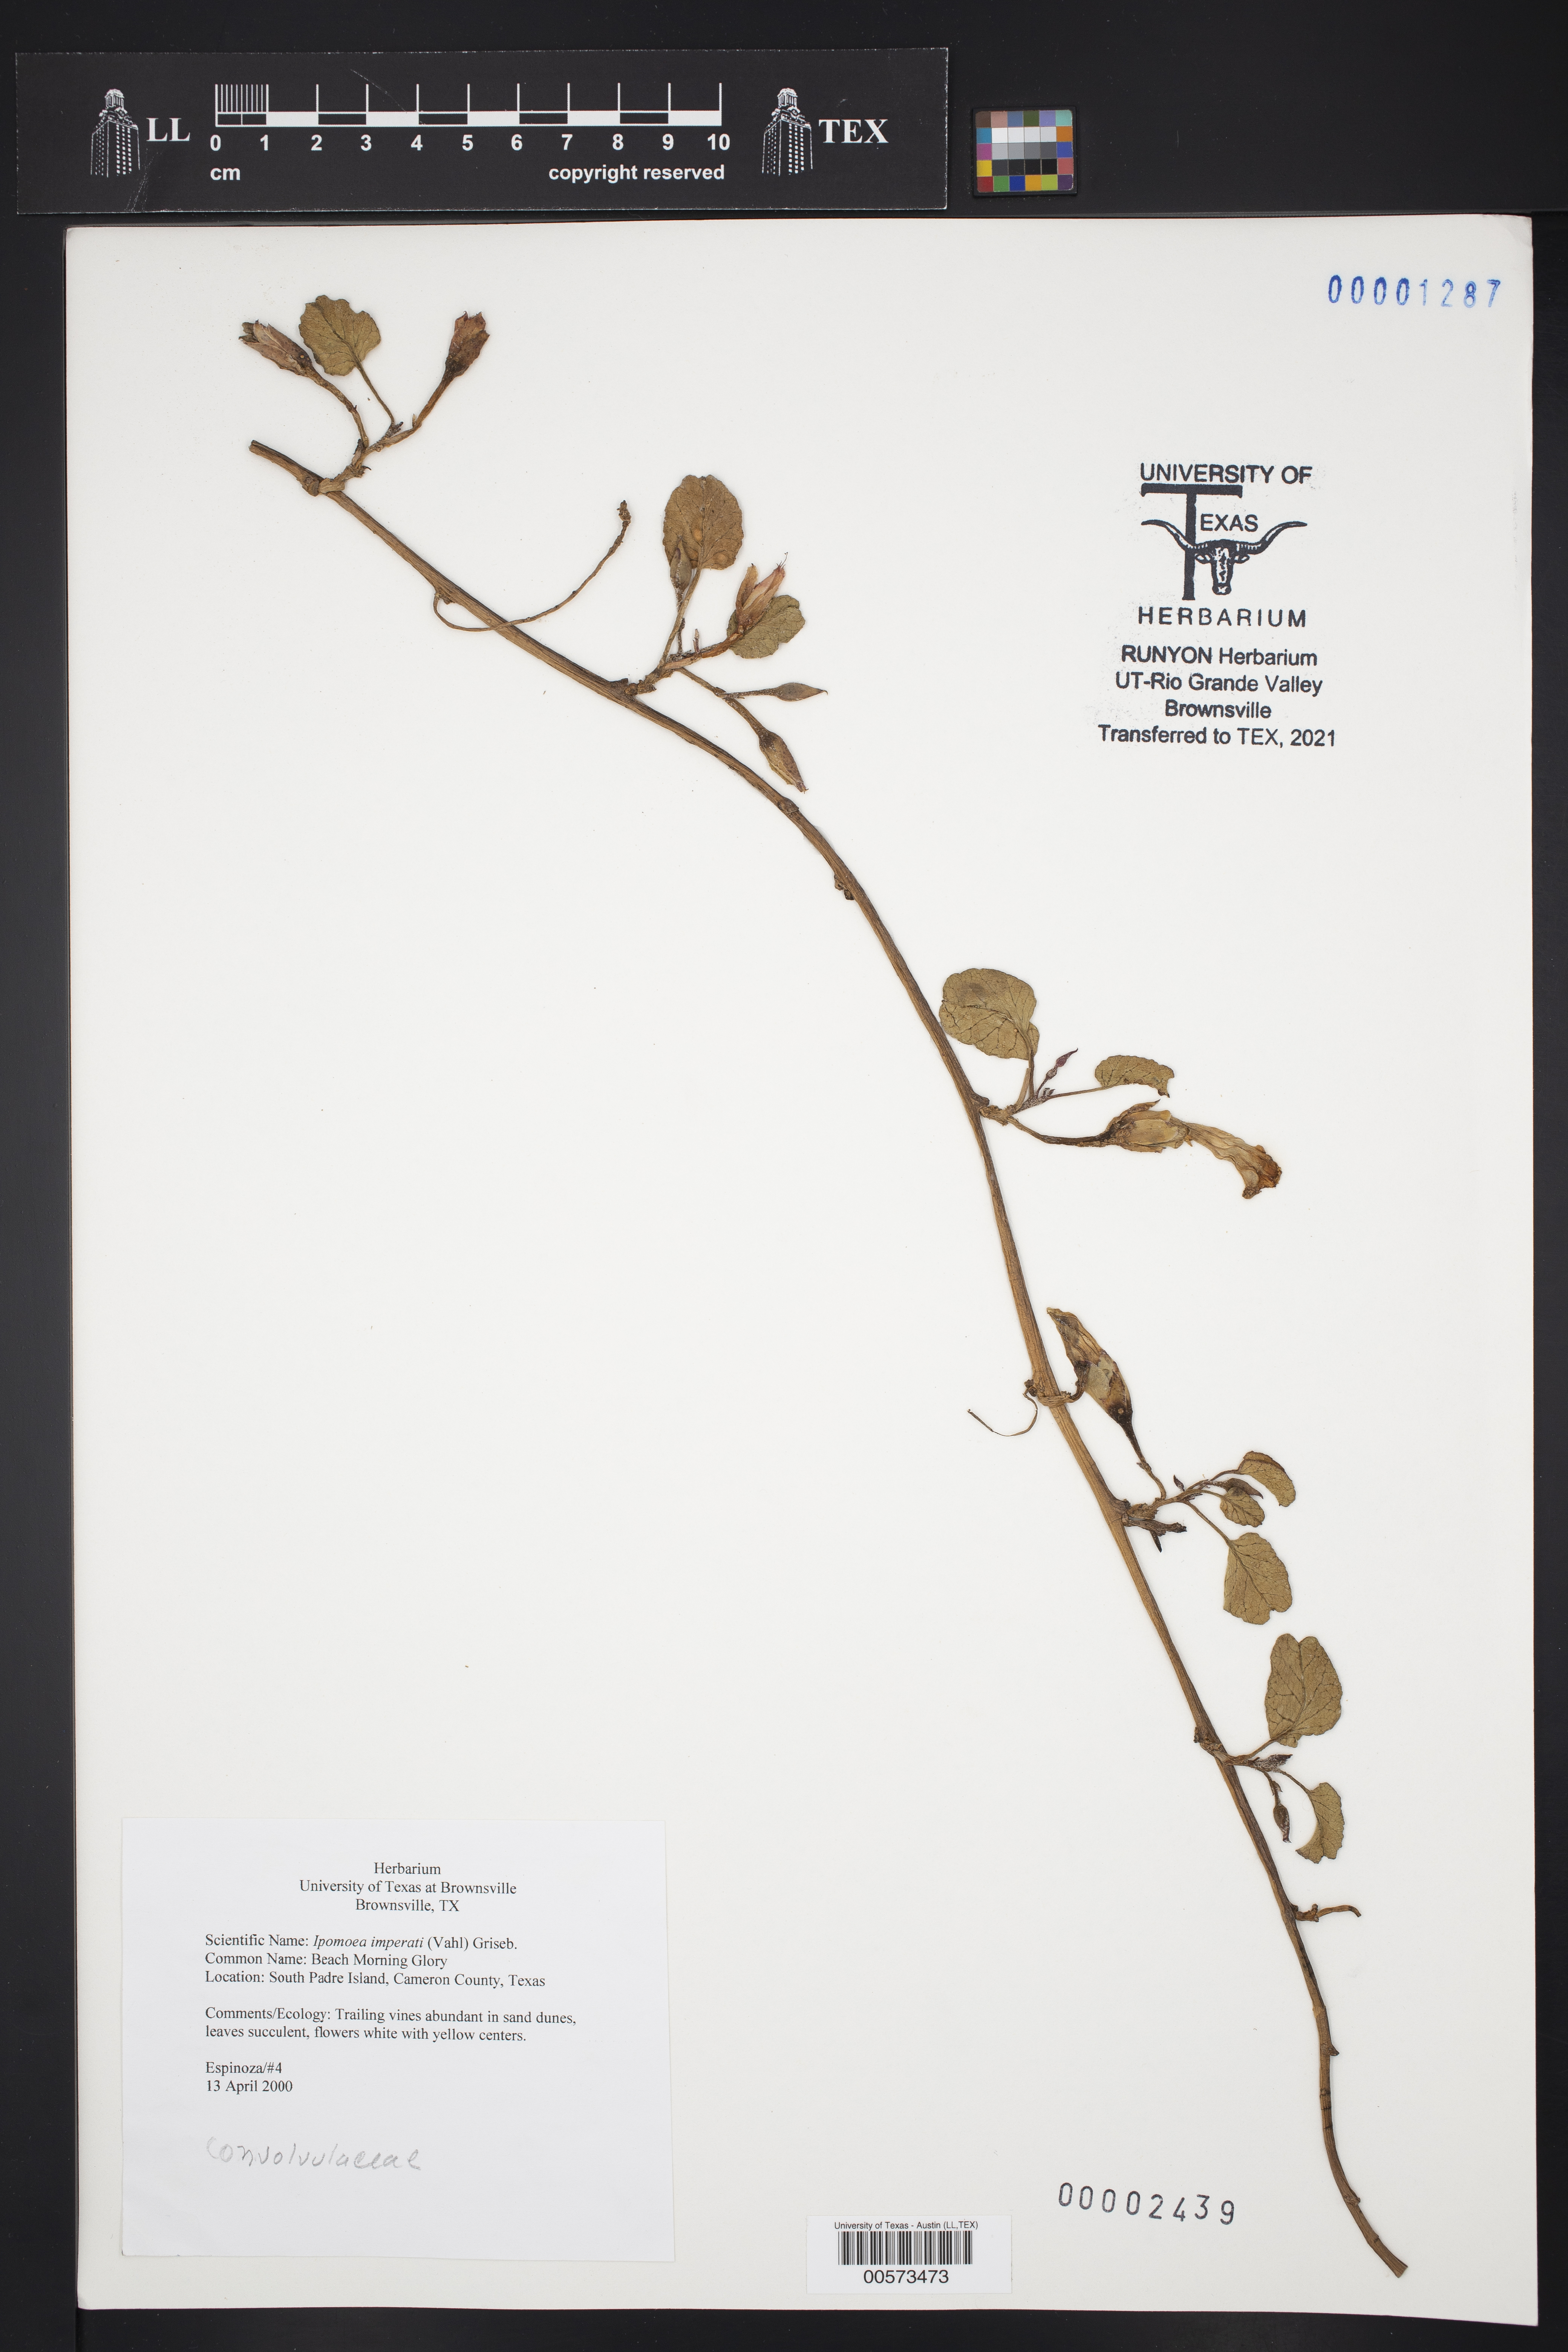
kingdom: Plantae
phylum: Tracheophyta
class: Magnoliopsida
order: Solanales
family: Convolvulaceae
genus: Ipomoea
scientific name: Ipomoea imperati
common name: Fiddle-leaf morning-glory
